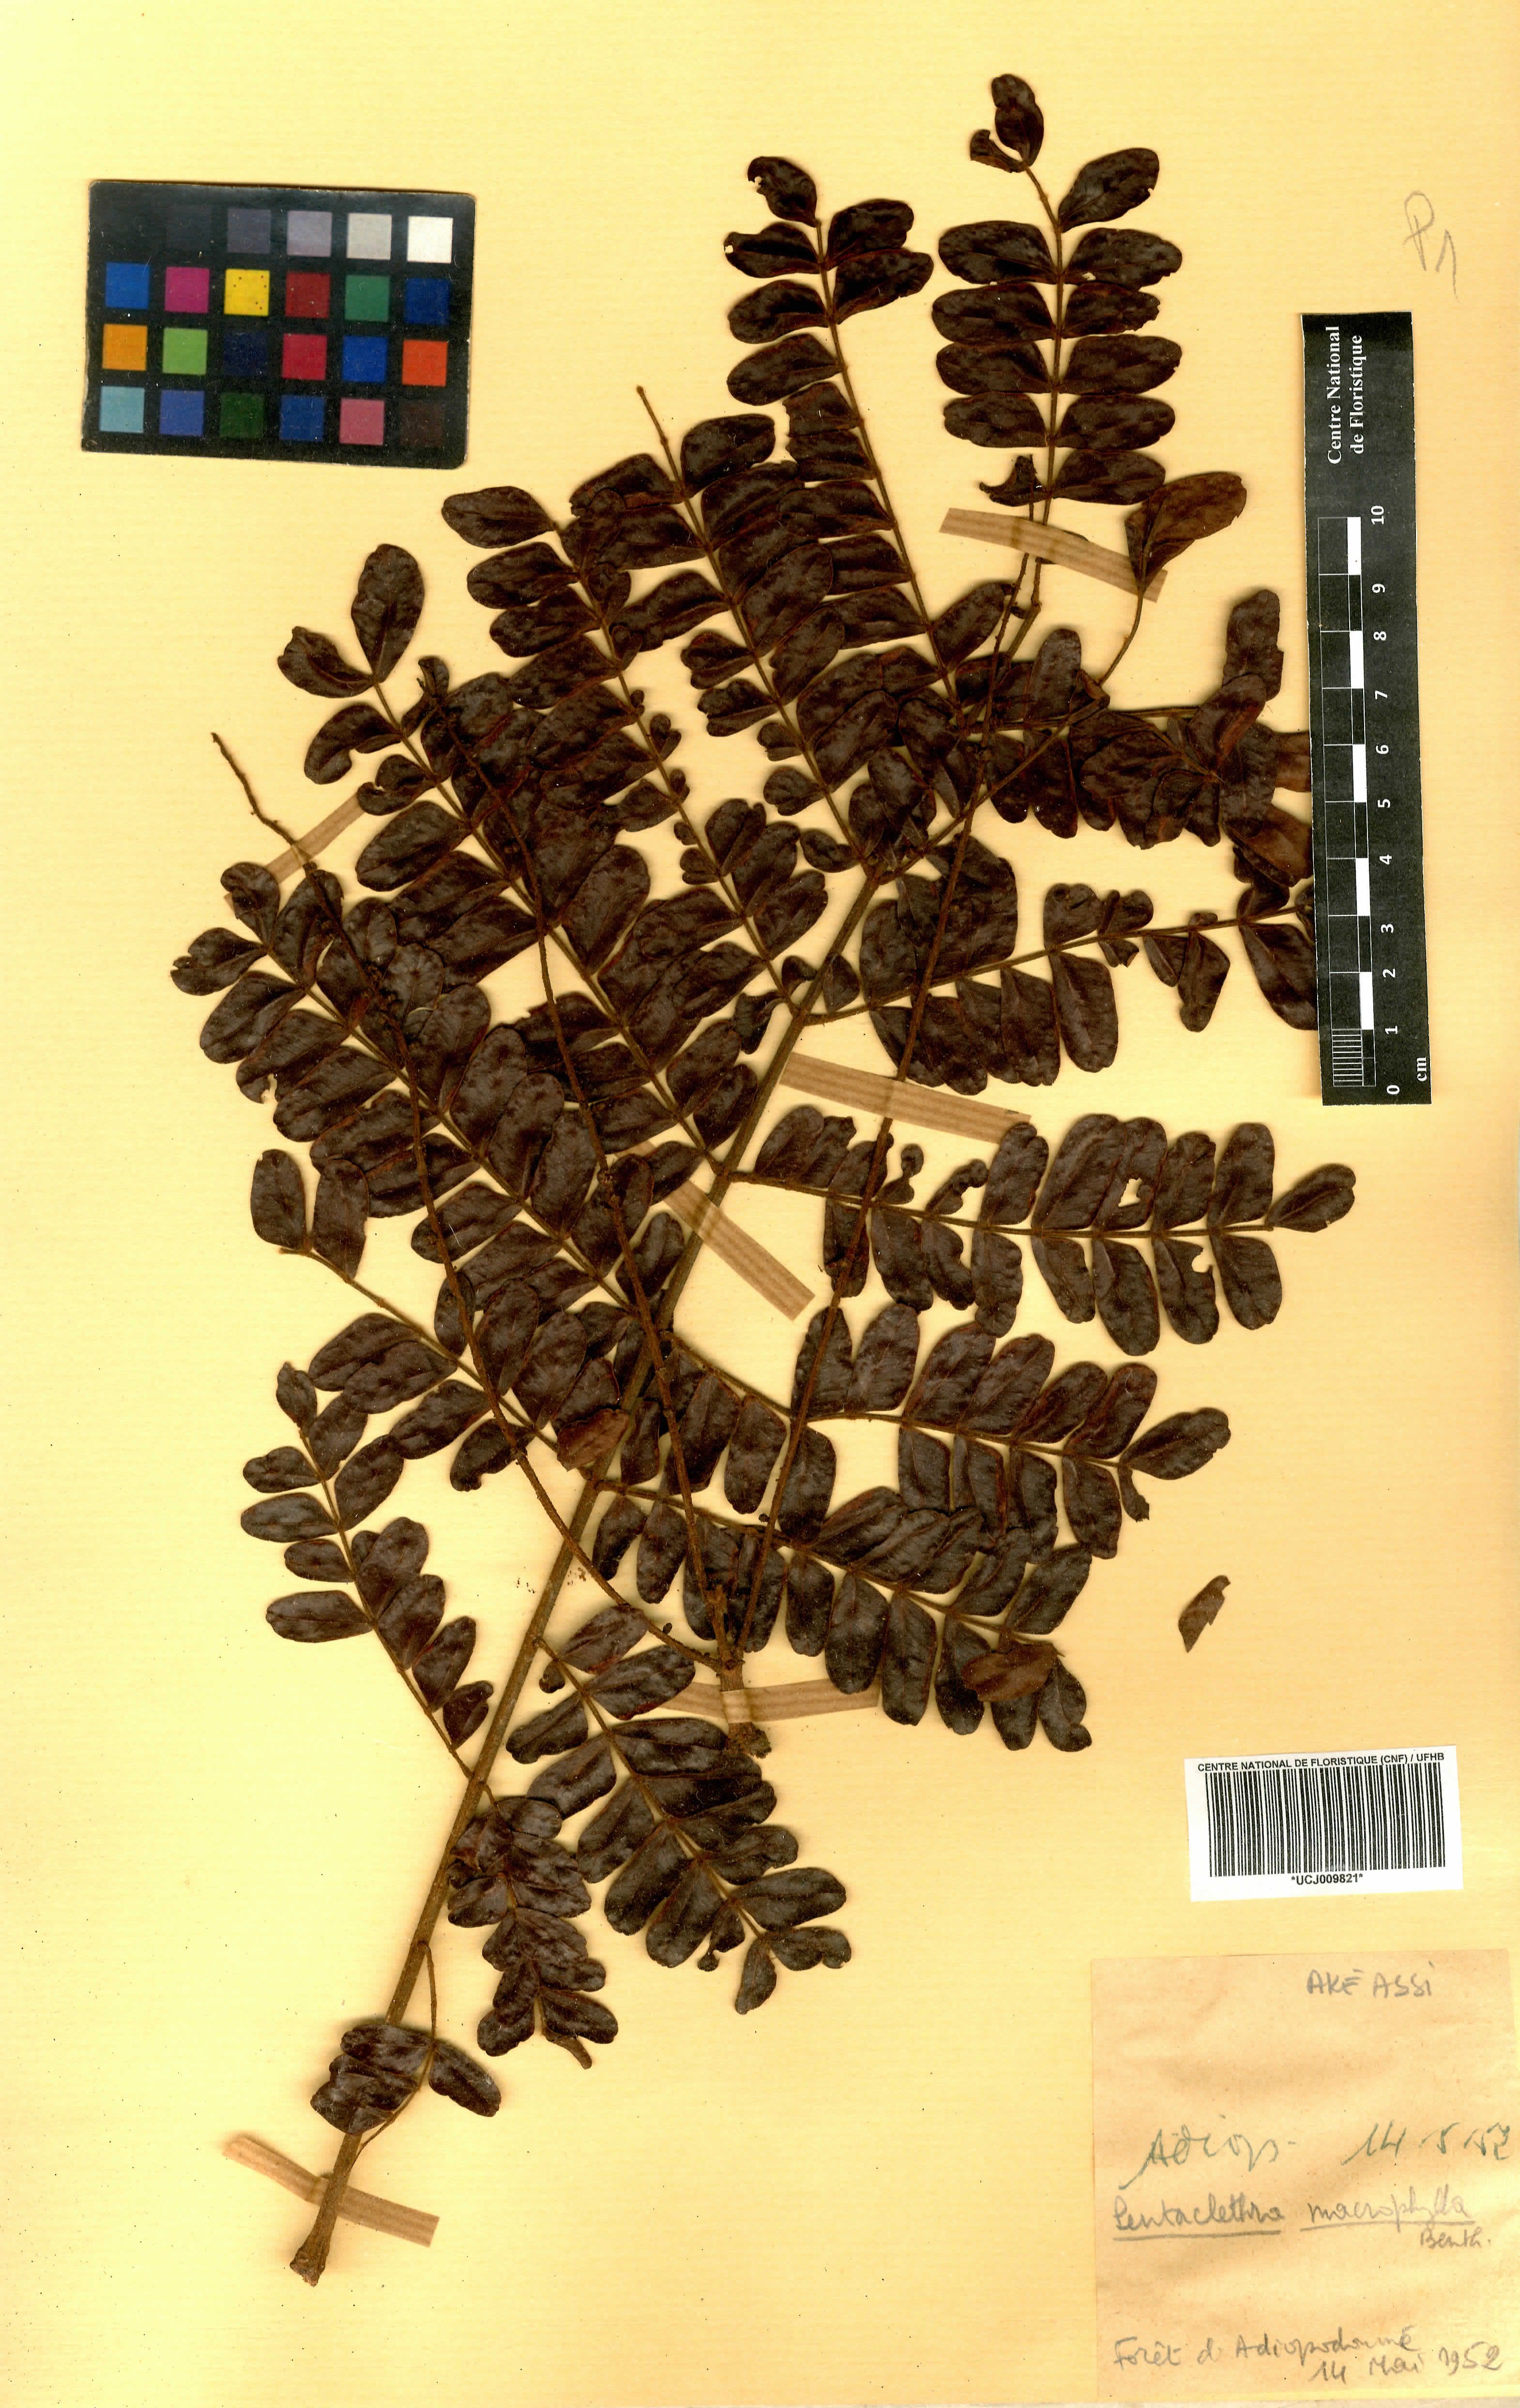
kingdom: Plantae
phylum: Tracheophyta
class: Magnoliopsida
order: Fabales
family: Fabaceae
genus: Pentaclethra
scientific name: Pentaclethra macrophylla
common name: African oil bean
